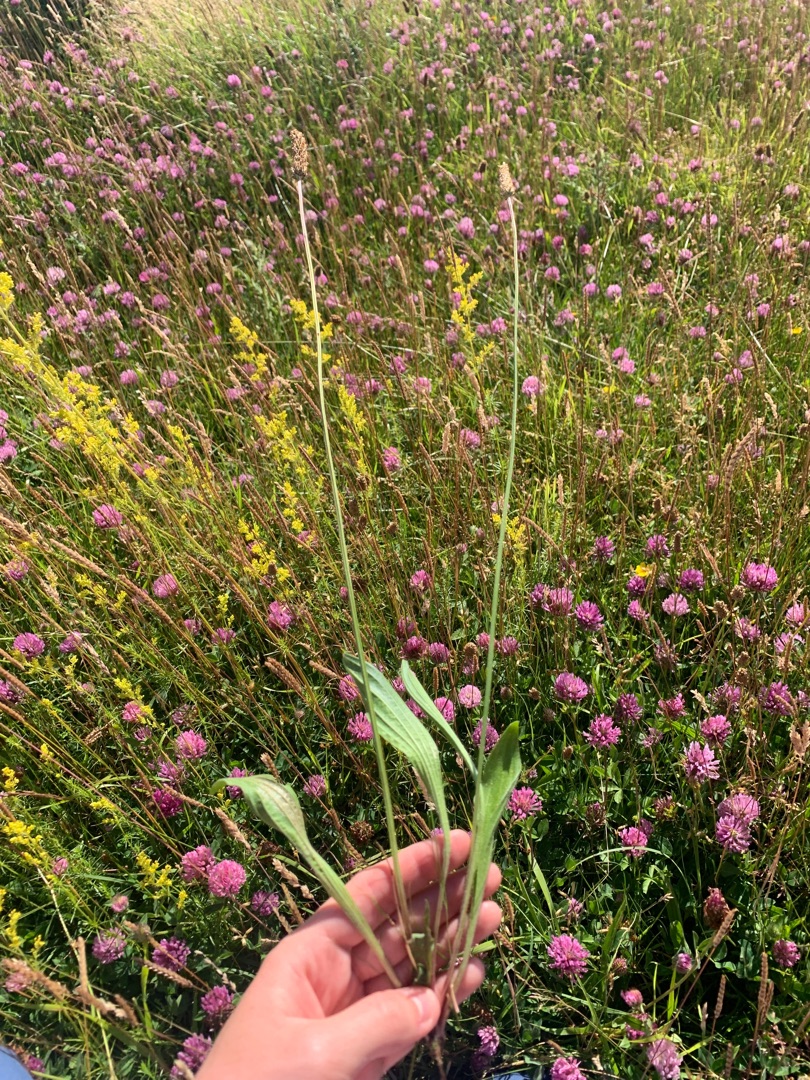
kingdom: Plantae
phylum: Tracheophyta
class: Magnoliopsida
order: Lamiales
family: Plantaginaceae
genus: Plantago
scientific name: Plantago lanceolata
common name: Lancet-vejbred
